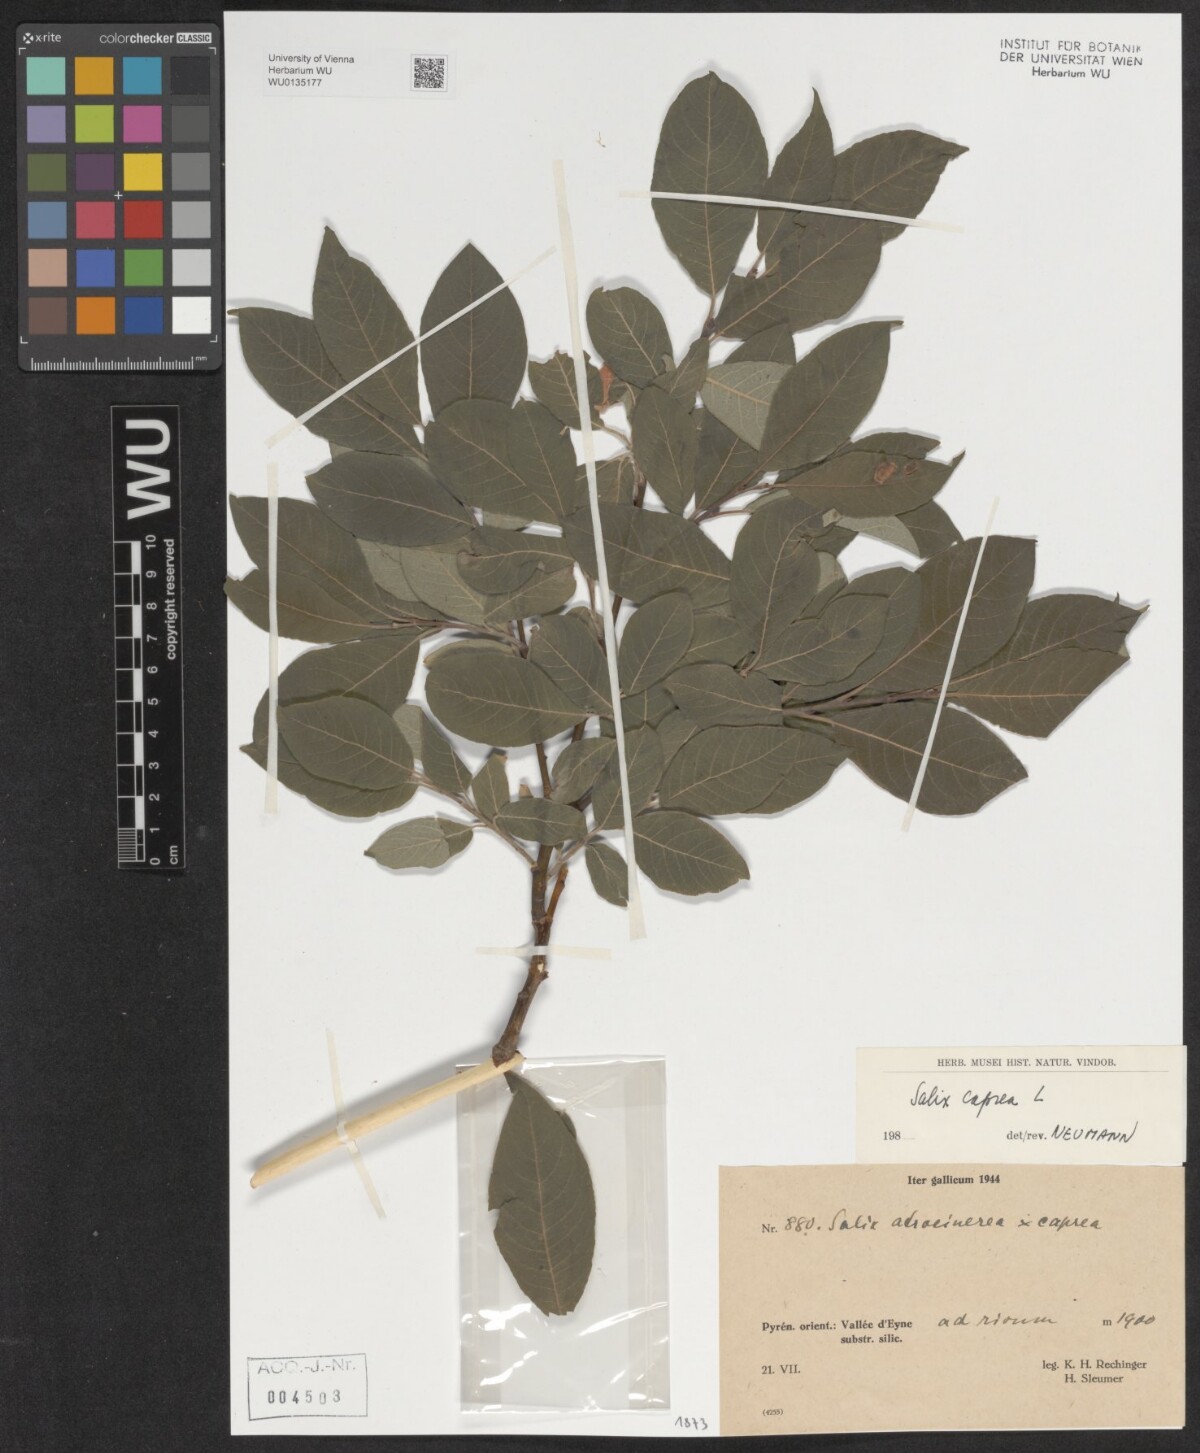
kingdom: Plantae
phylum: Tracheophyta
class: Magnoliopsida
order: Malpighiales
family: Salicaceae
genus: Salix
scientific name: Salix caprea
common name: Goat willow
